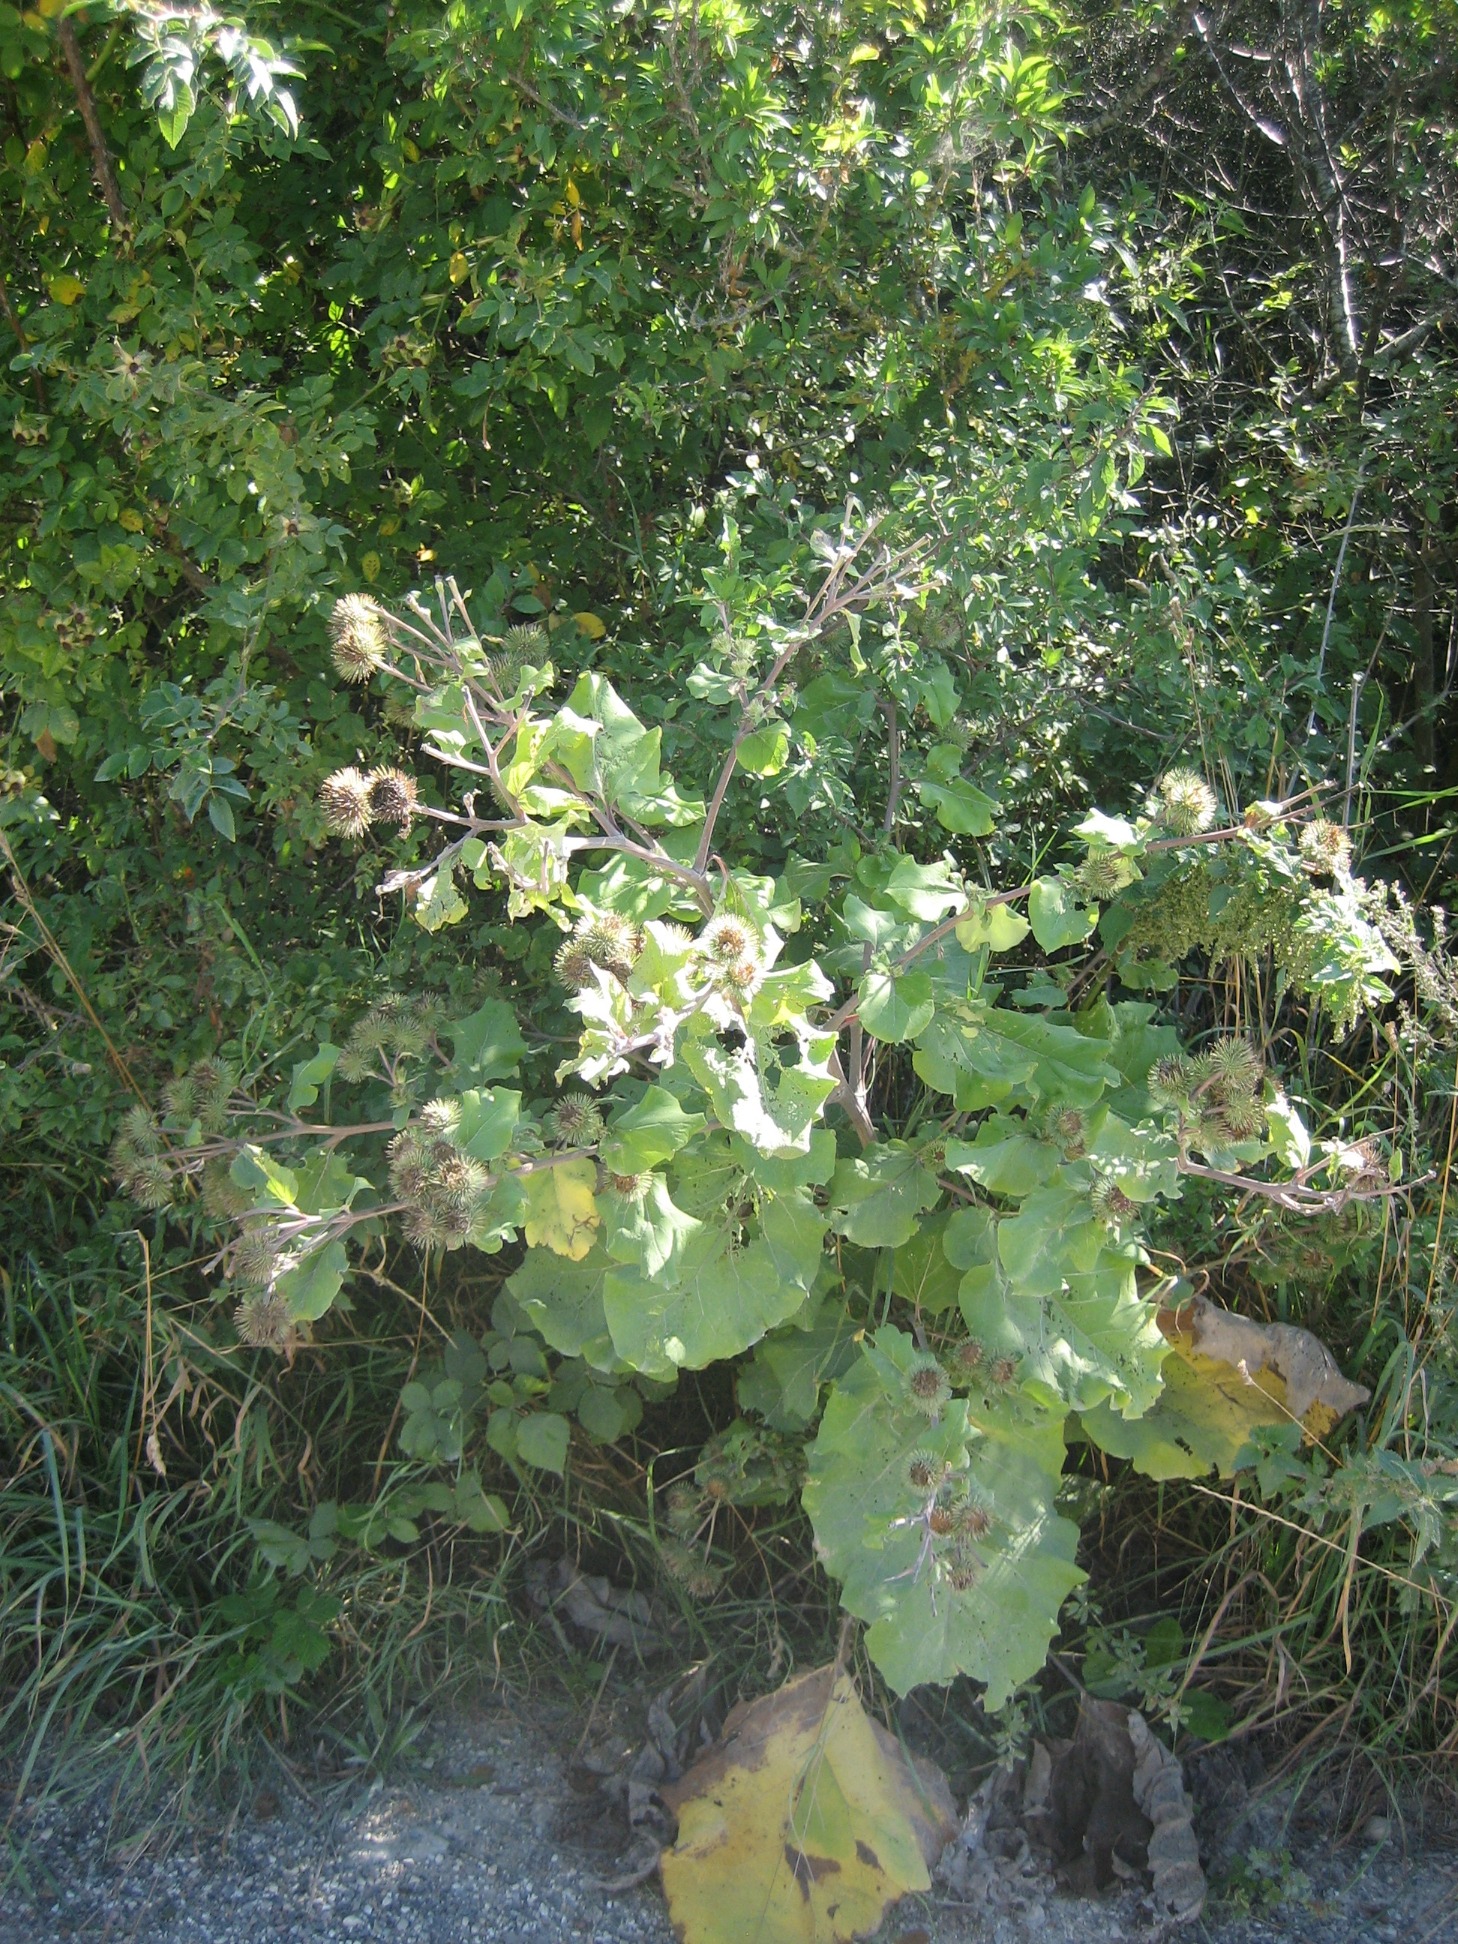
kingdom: Plantae
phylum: Tracheophyta
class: Magnoliopsida
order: Asterales
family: Asteraceae
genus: Arctium
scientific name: Arctium lappa
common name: Glat burre
